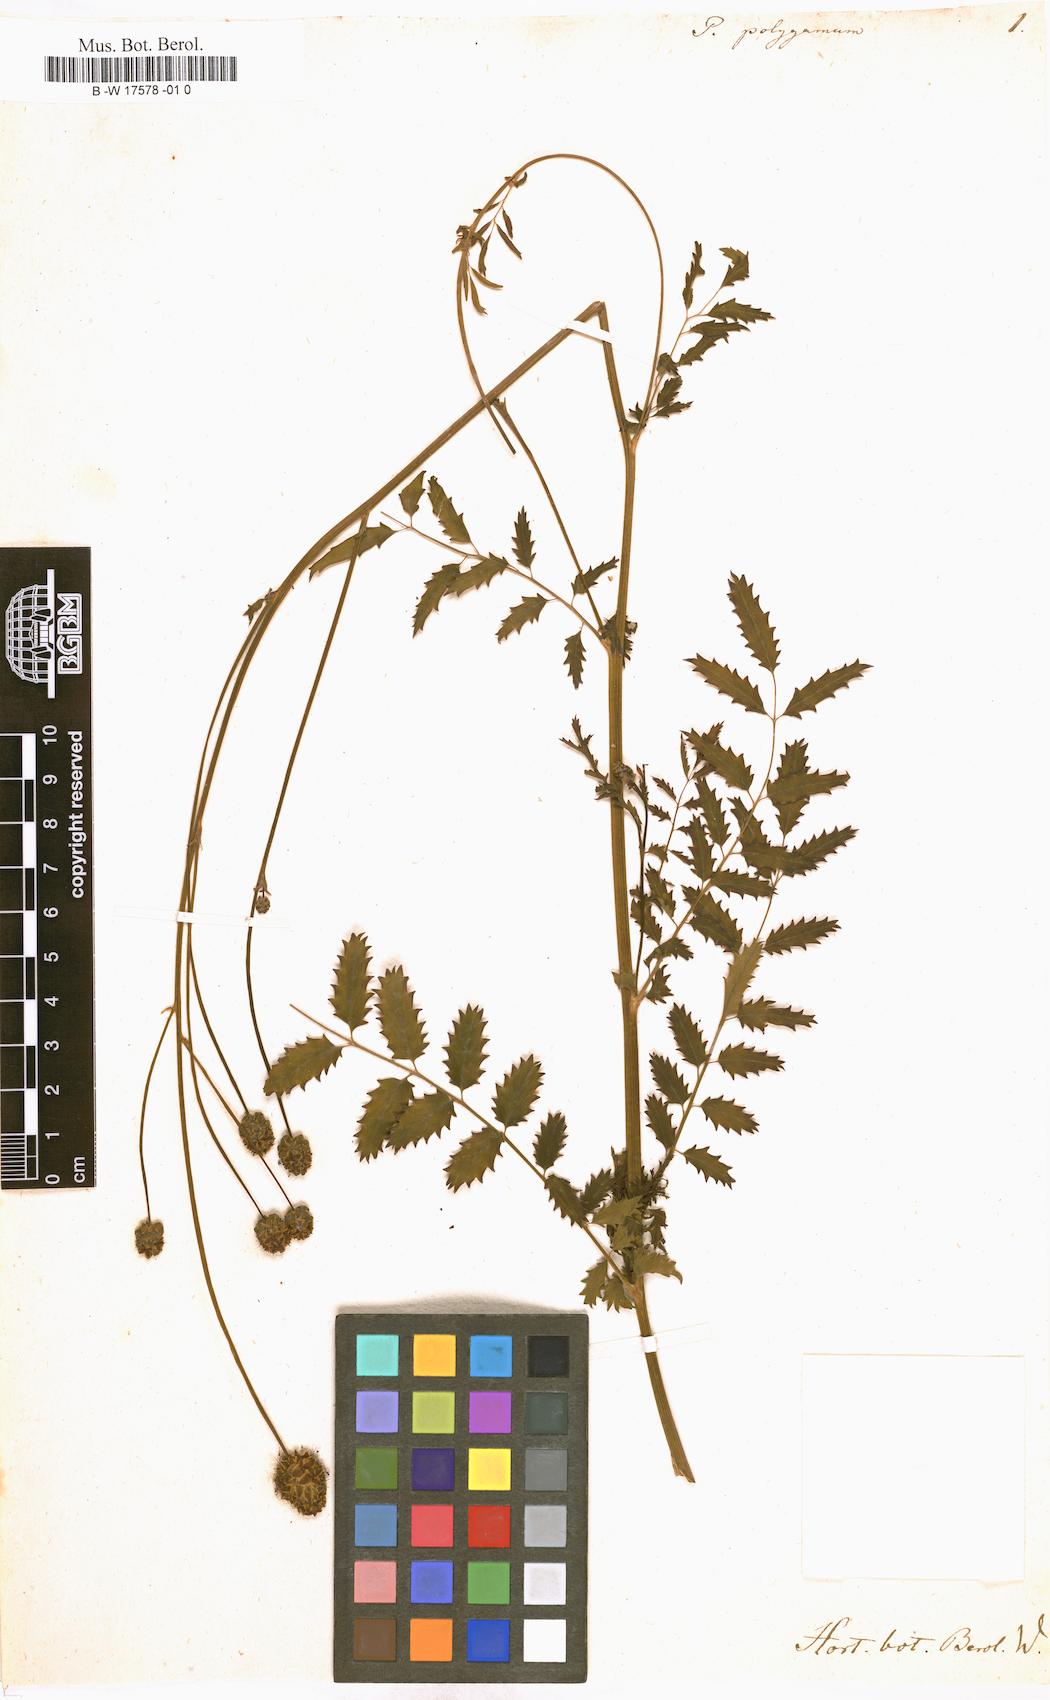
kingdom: Plantae
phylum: Tracheophyta
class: Magnoliopsida
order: Rosales
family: Rosaceae
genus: Poterium
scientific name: Poterium sanguisorba
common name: Salad burnet
